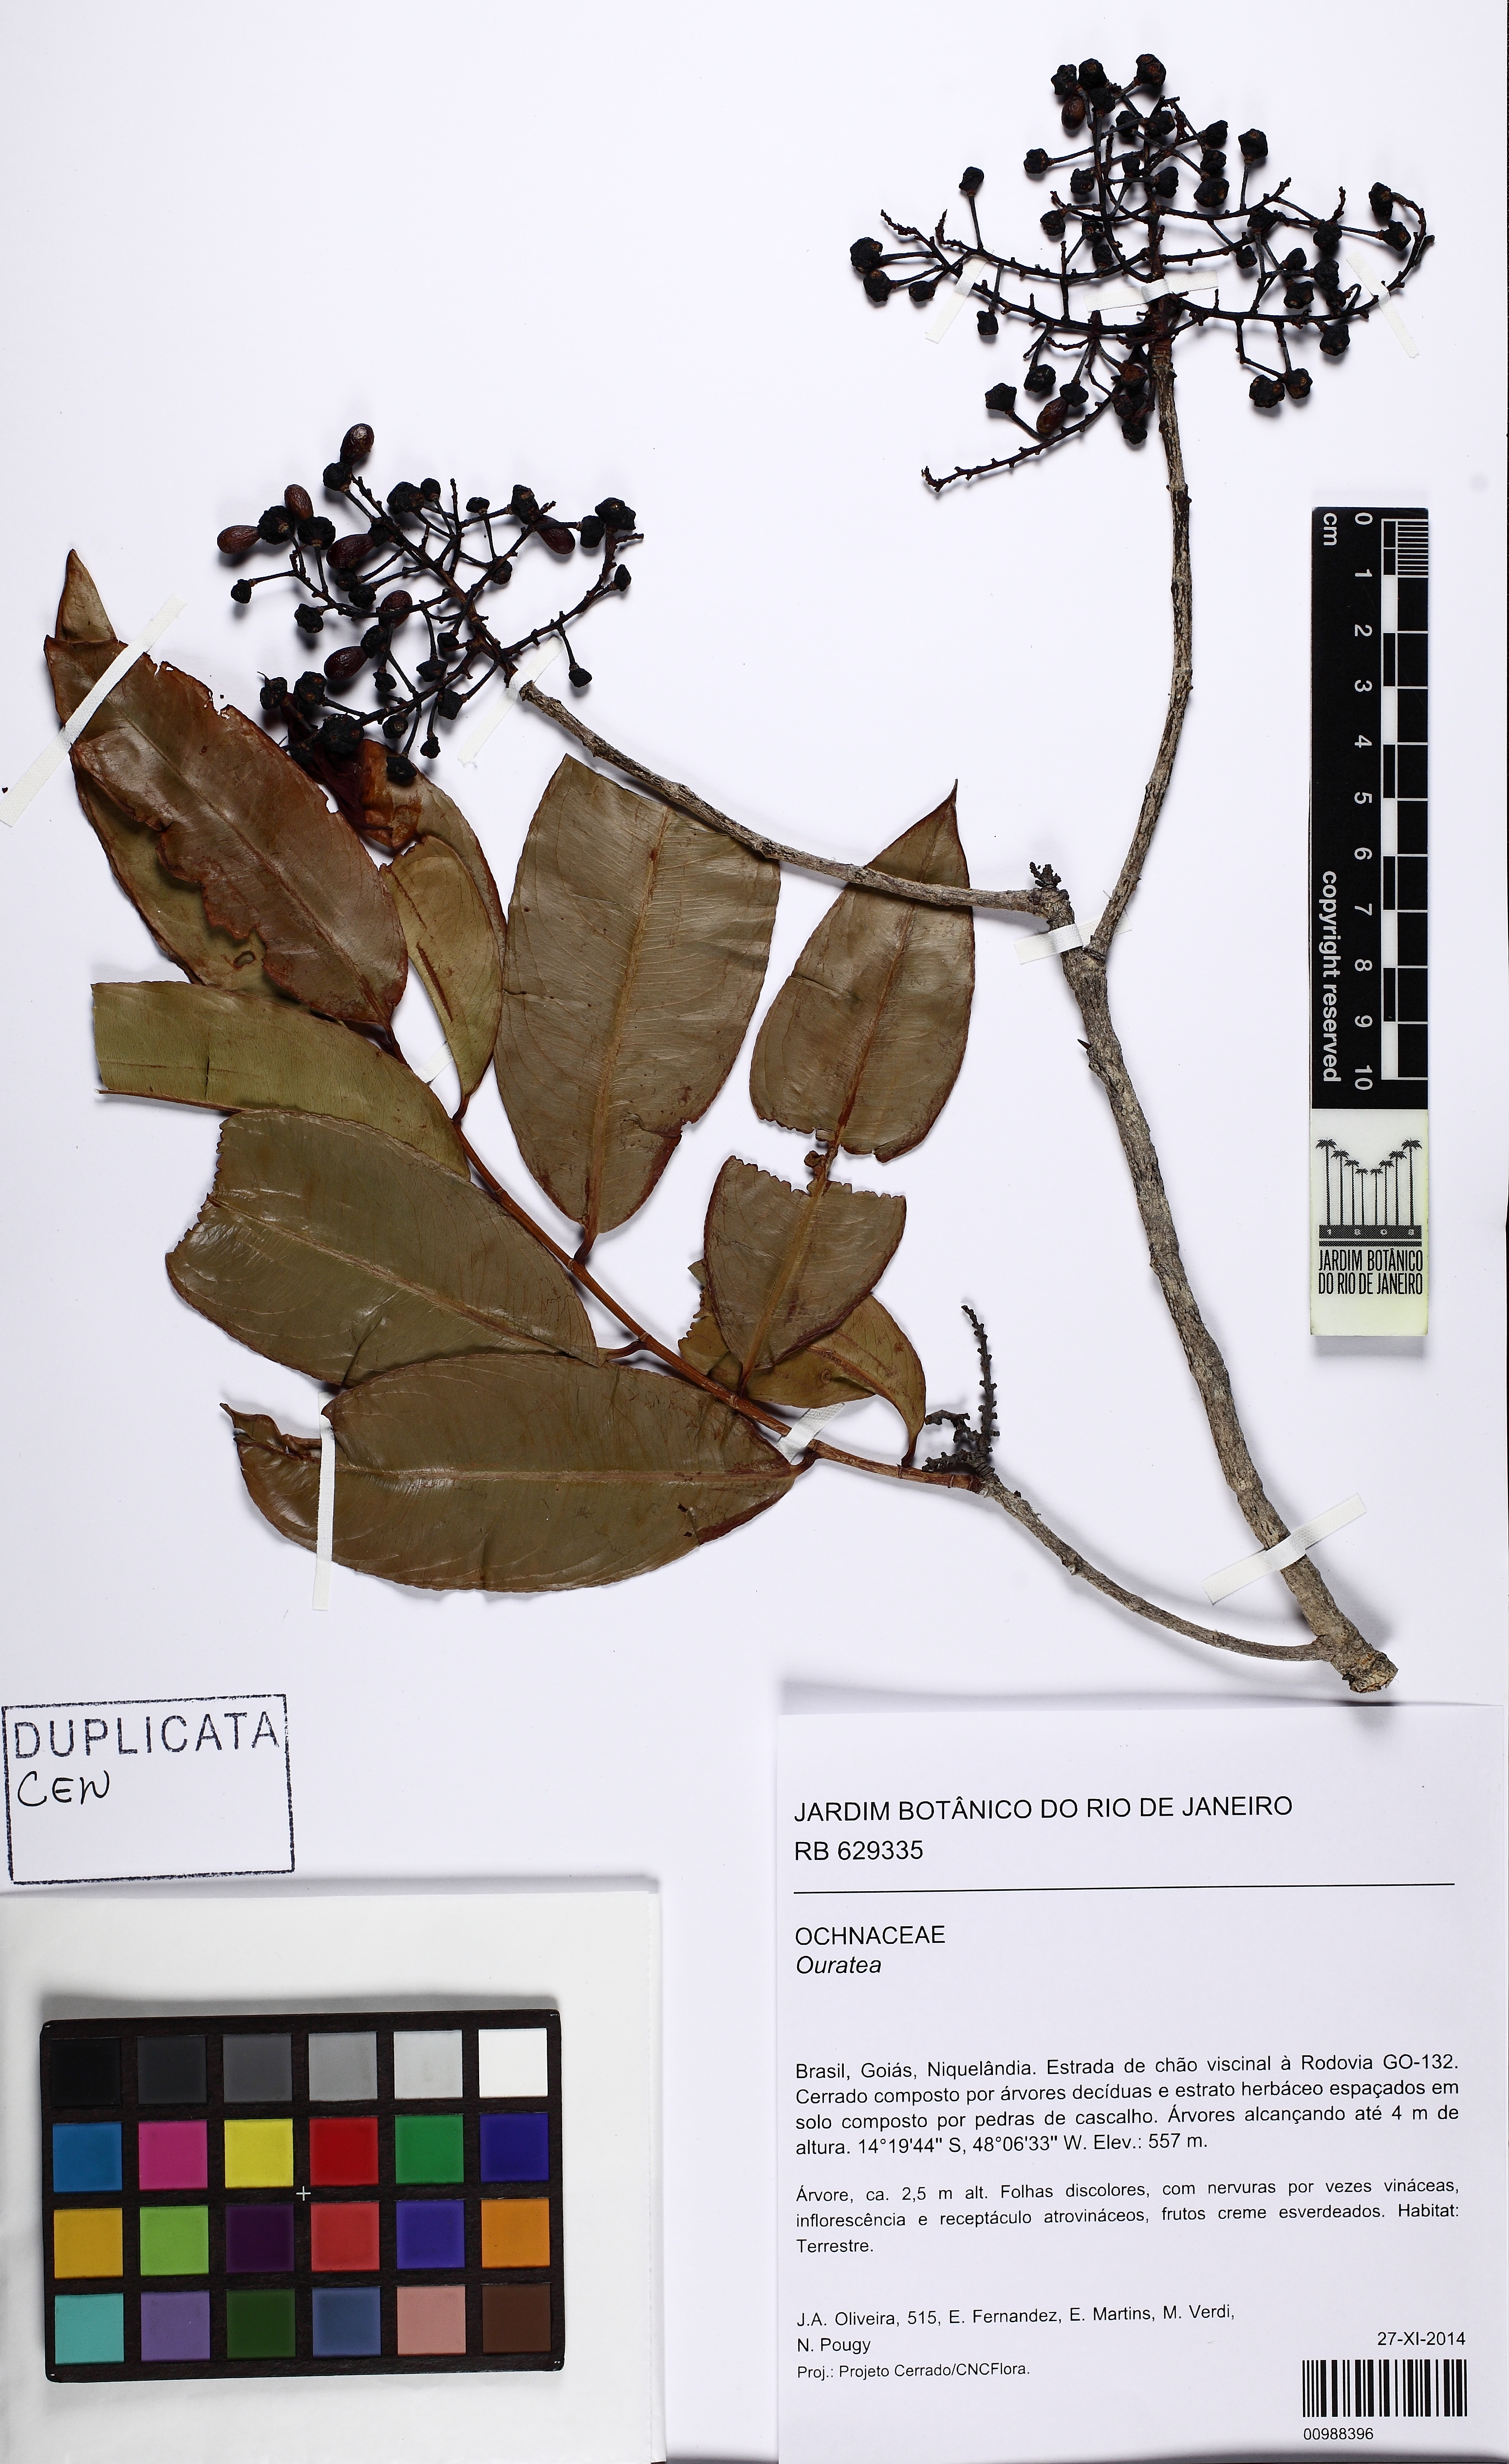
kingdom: Plantae
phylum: Tracheophyta
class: Magnoliopsida
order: Malpighiales
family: Ochnaceae
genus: Ouratea
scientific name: Ouratea
